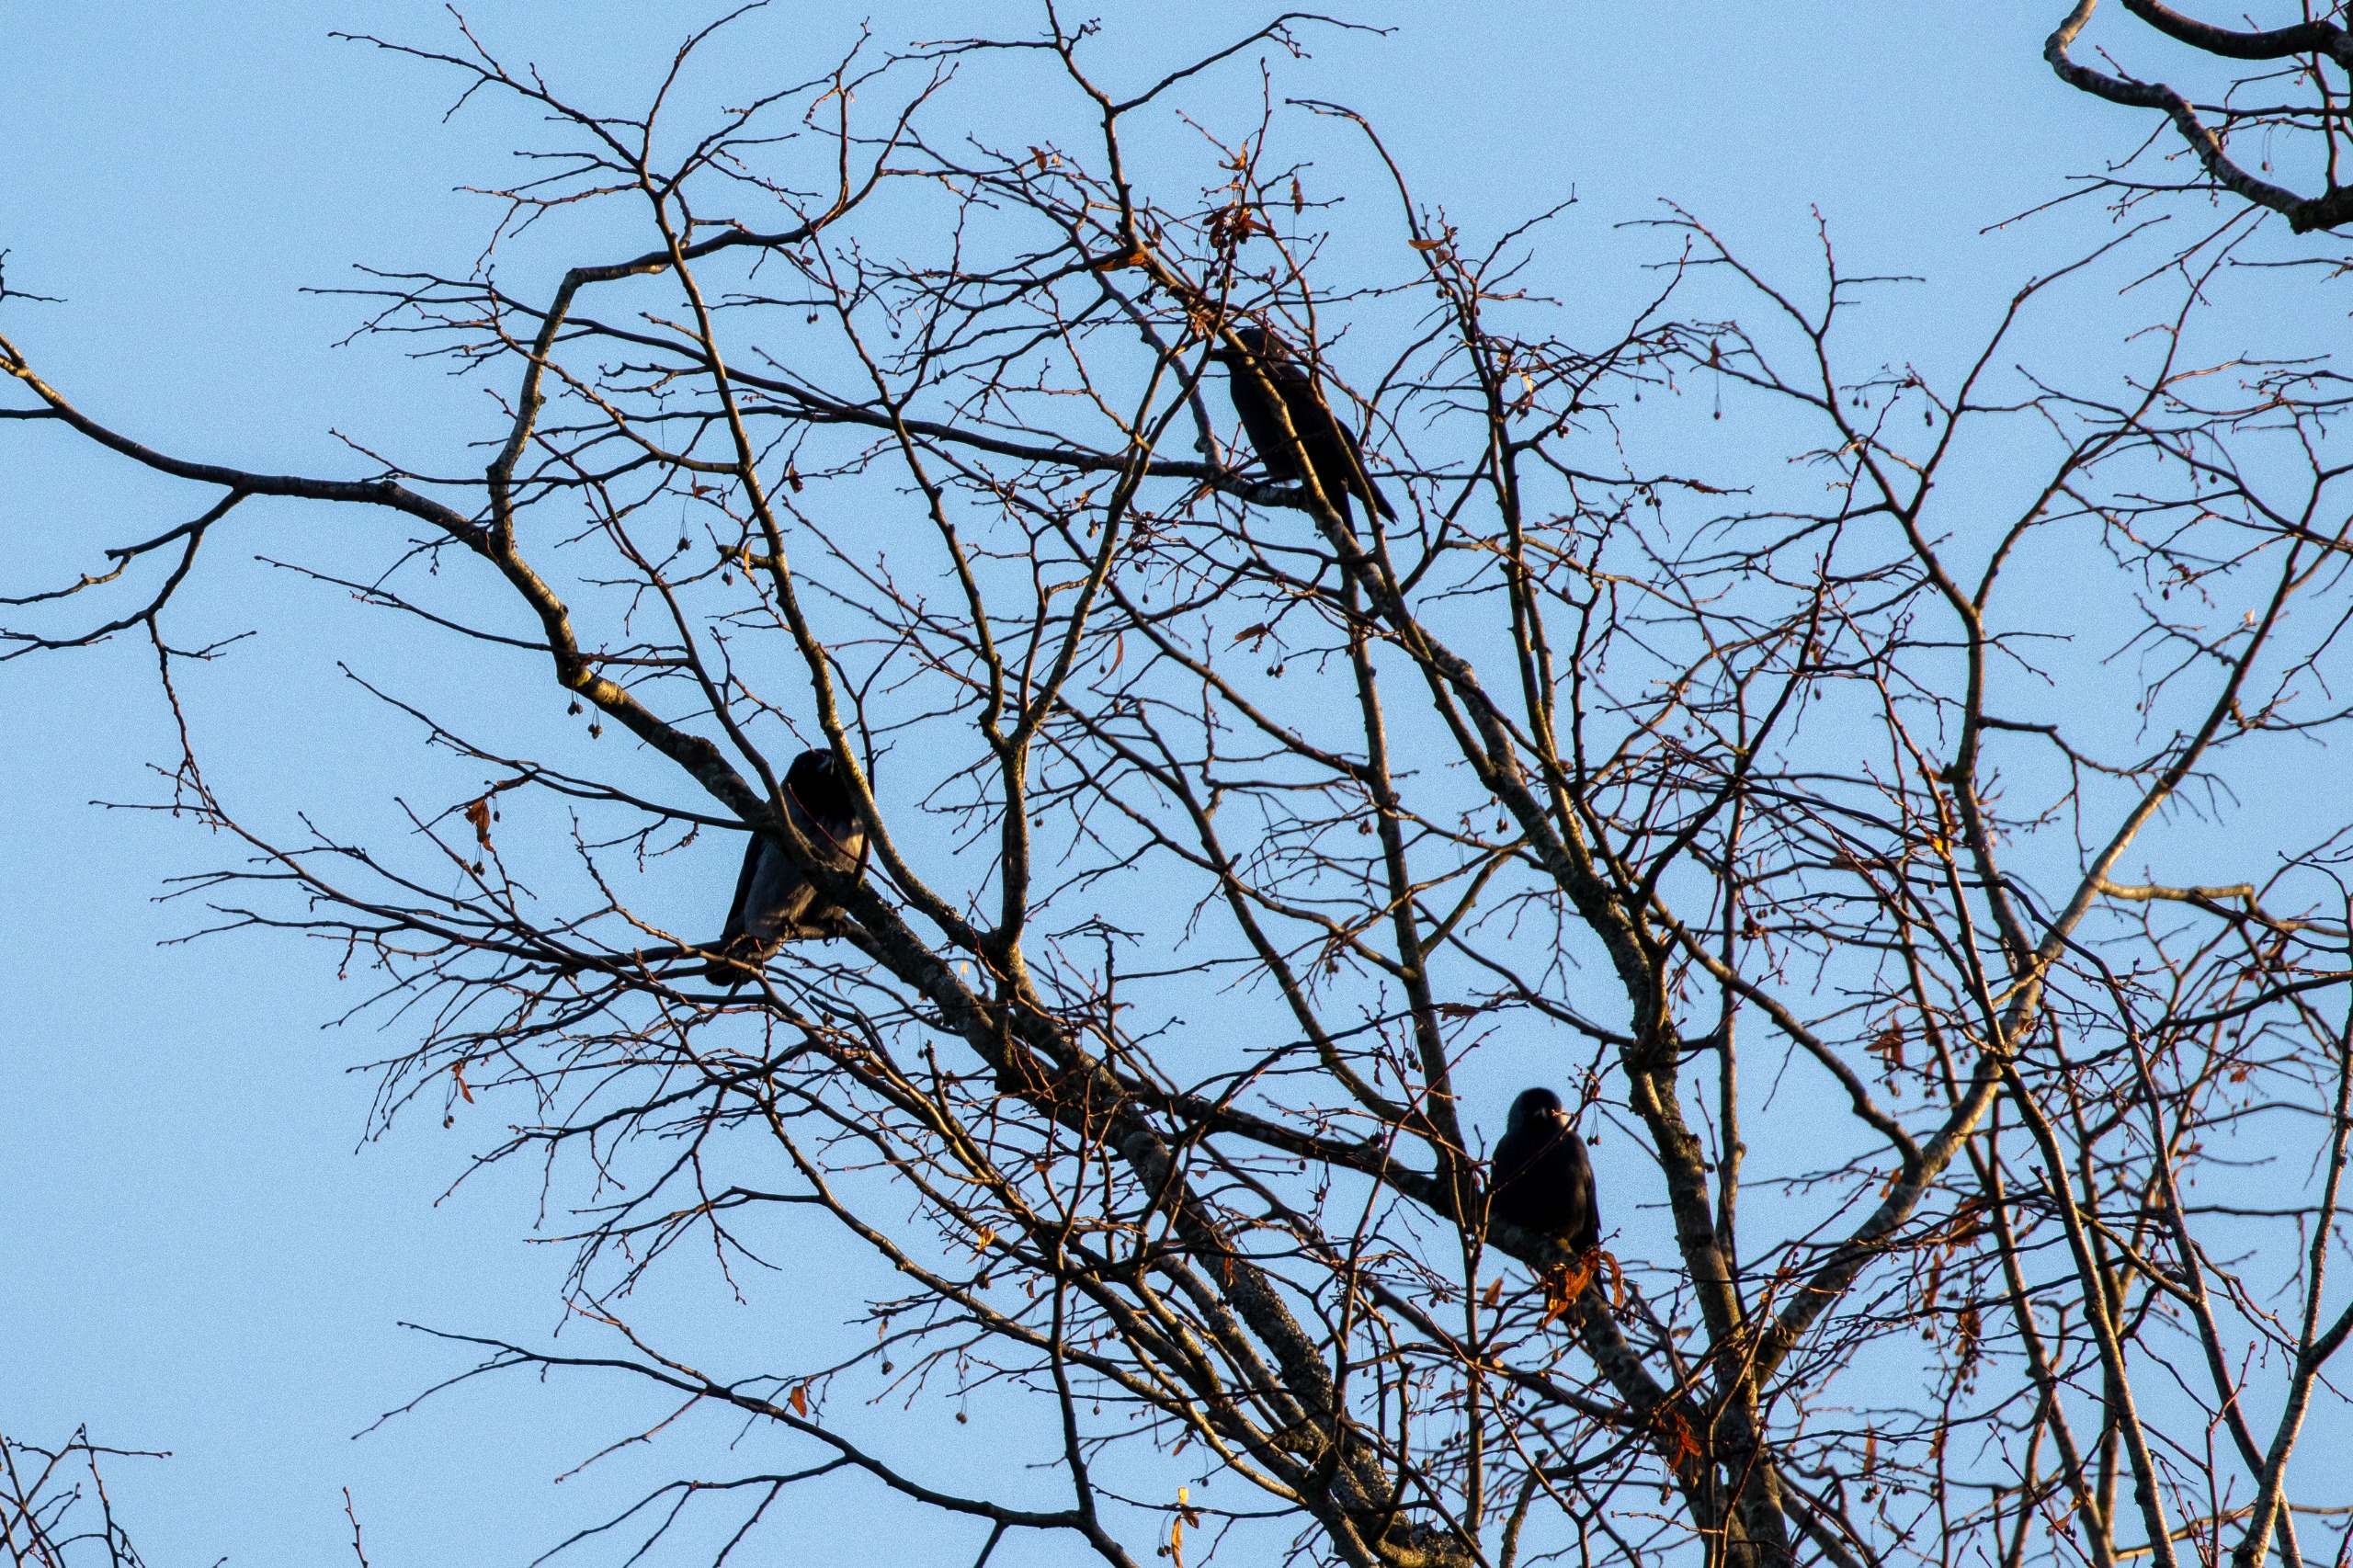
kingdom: Animalia
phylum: Chordata
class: Aves
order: Passeriformes
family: Corvidae
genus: Corvus
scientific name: Corvus cornix
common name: Gråkrage
